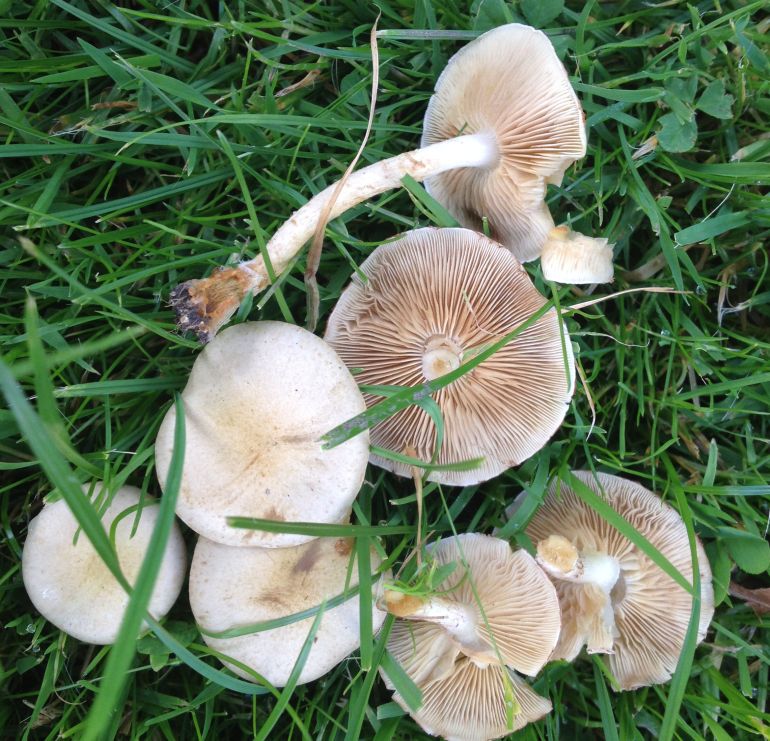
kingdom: Fungi
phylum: Basidiomycota
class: Agaricomycetes
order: Agaricales
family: Strophariaceae
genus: Pholiota
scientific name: Pholiota gummosa
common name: grøngul skælhat
